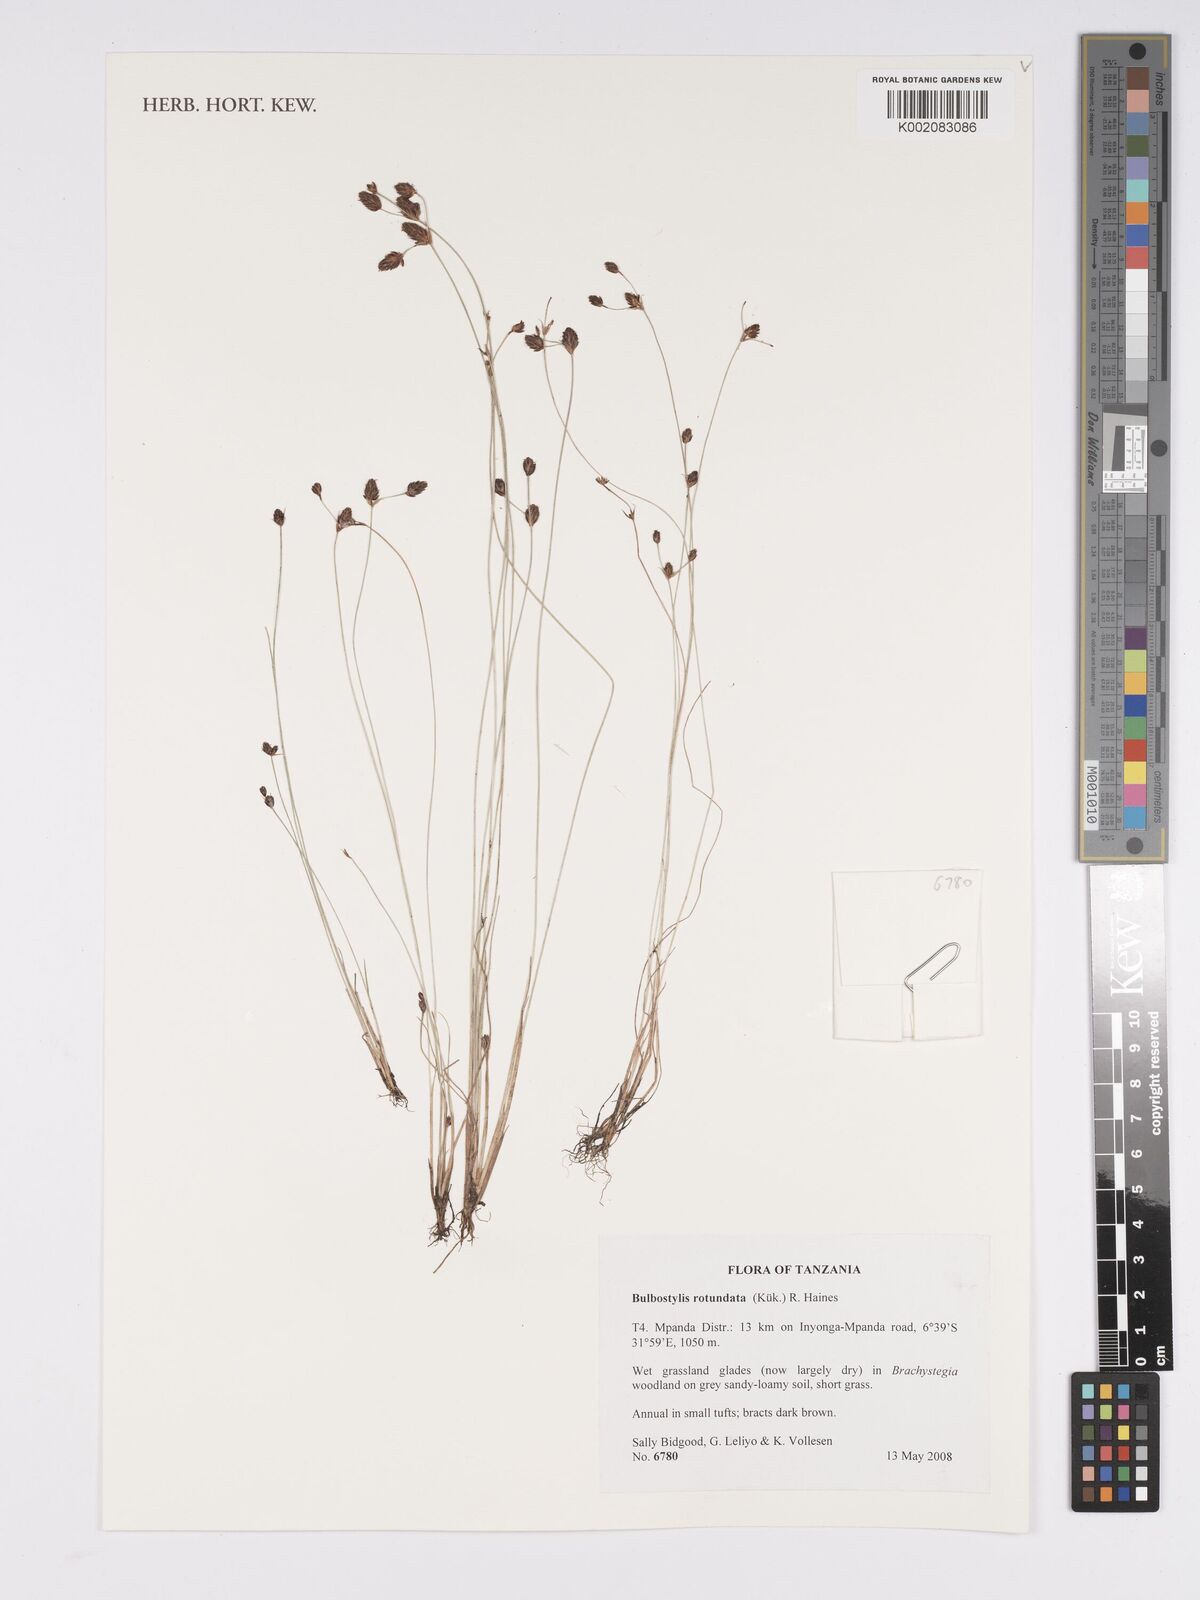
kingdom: Plantae
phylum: Tracheophyta
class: Liliopsida
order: Poales
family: Cyperaceae
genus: Bulbostylis
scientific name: Bulbostylis rotundata
